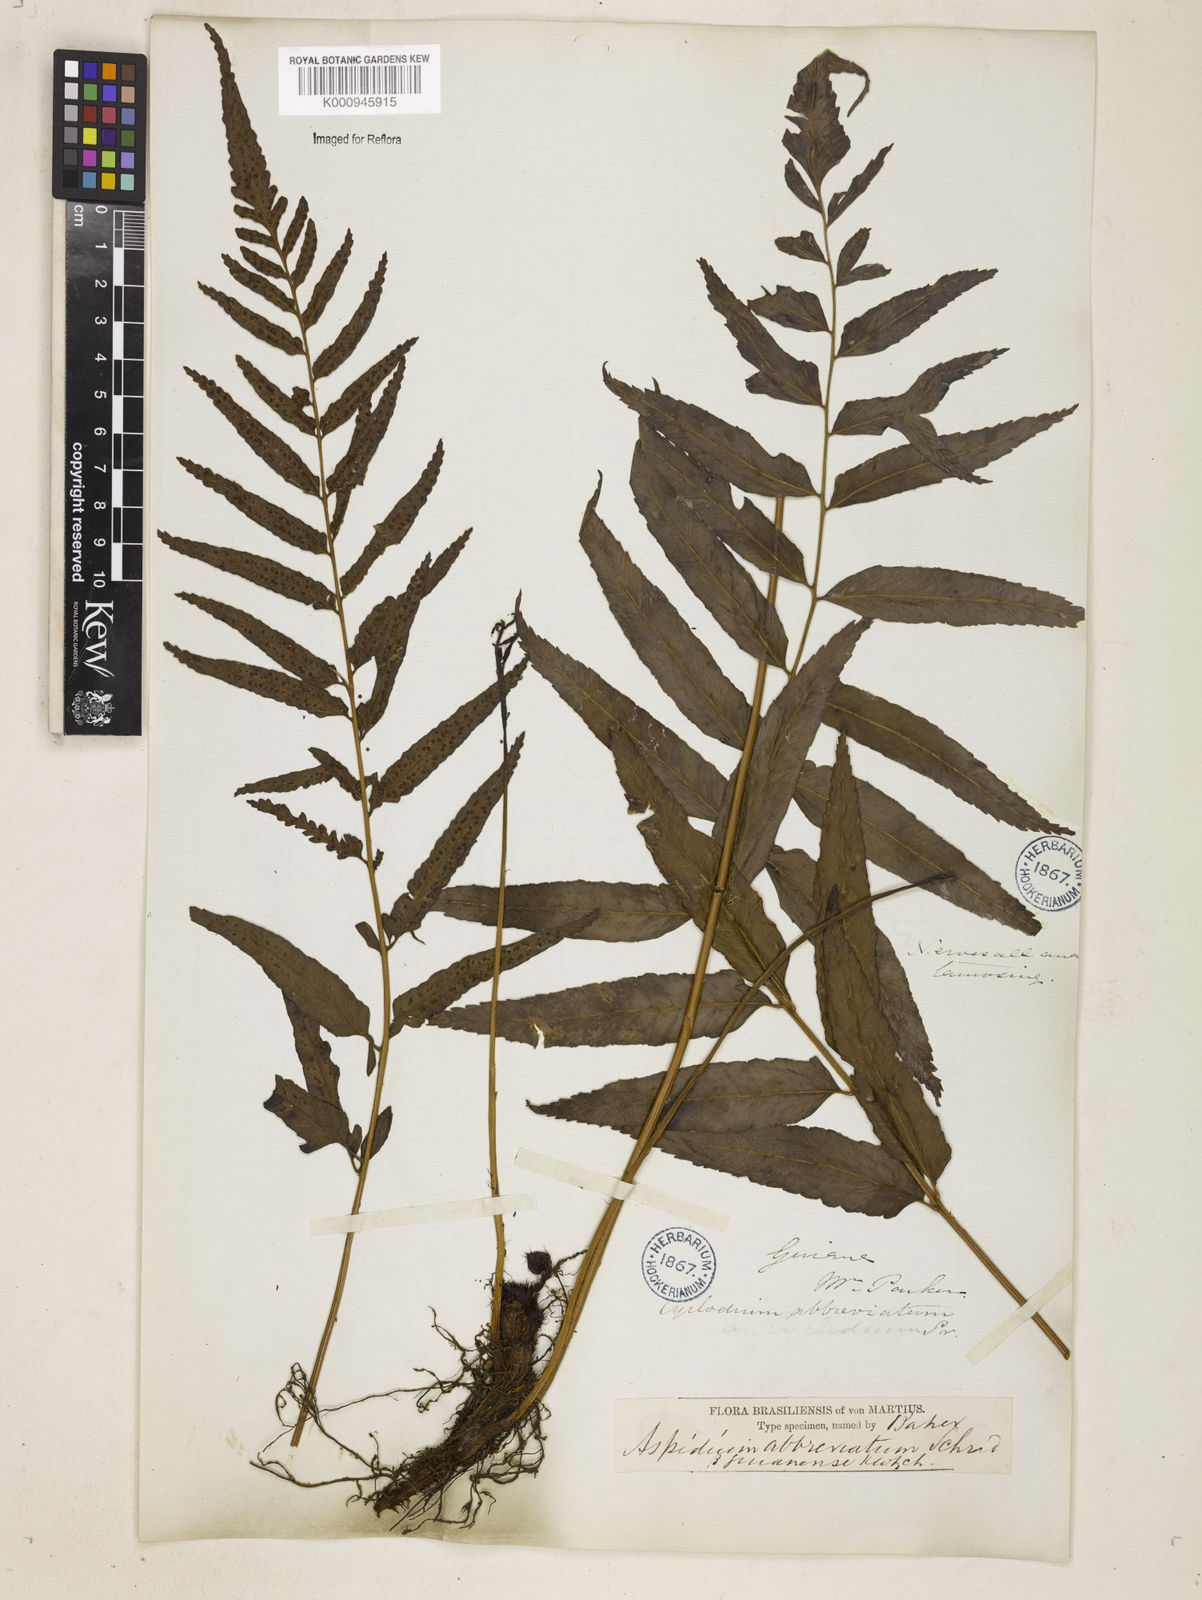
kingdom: Plantae
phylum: Tracheophyta
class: Polypodiopsida
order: Polypodiales
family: Dryopteridaceae
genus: Cyclodium
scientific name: Cyclodium
